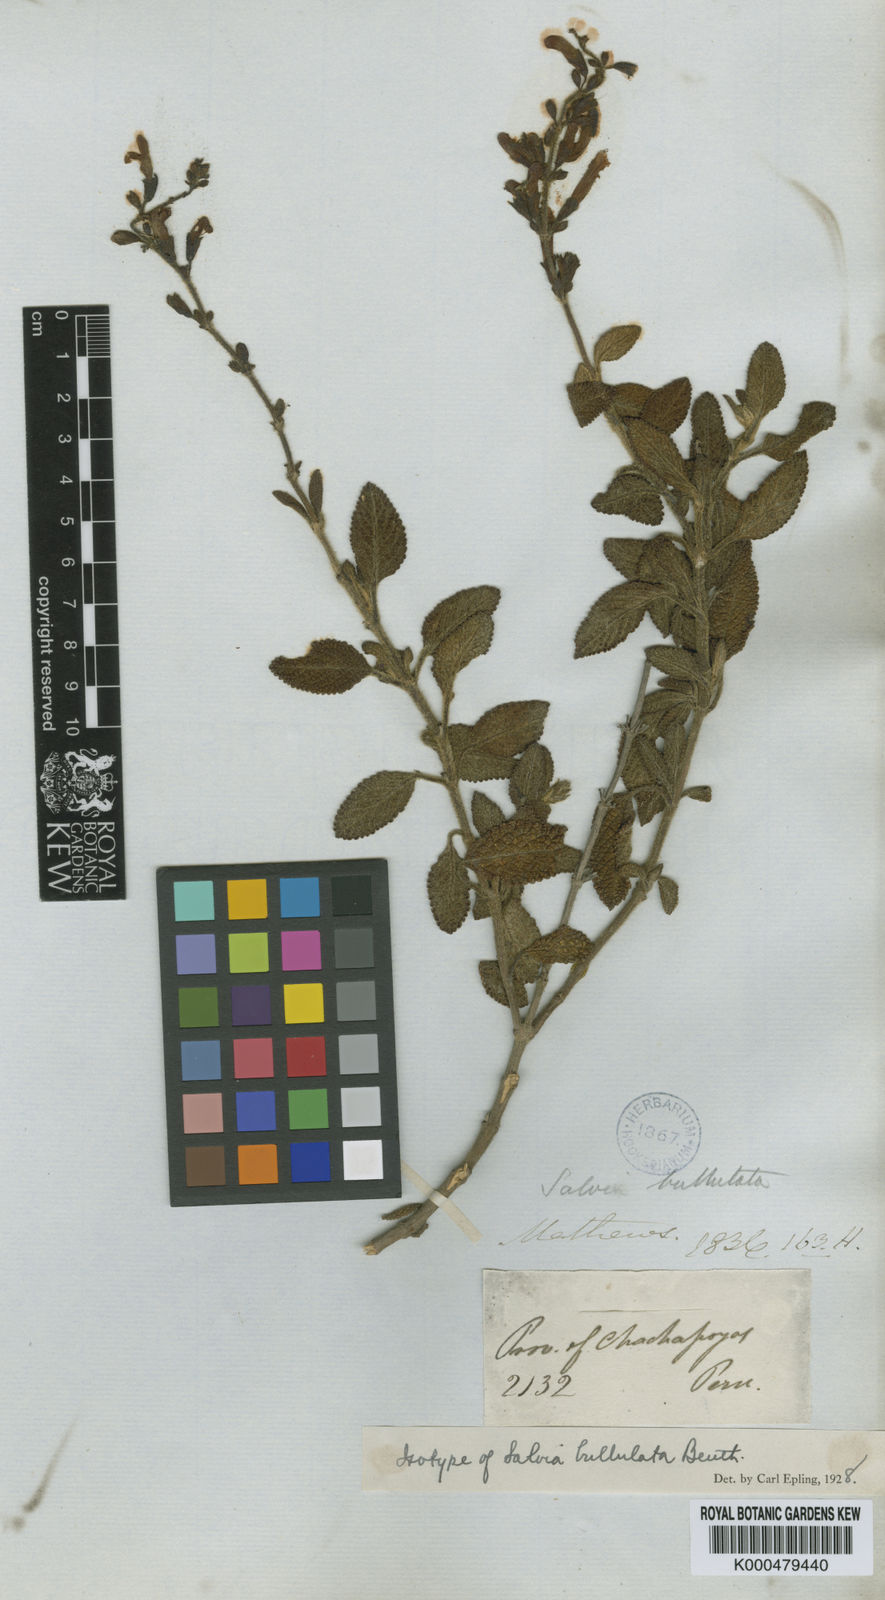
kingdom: Plantae
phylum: Tracheophyta
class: Magnoliopsida
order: Lamiales
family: Lamiaceae
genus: Salvia
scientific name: Salvia bullulata
